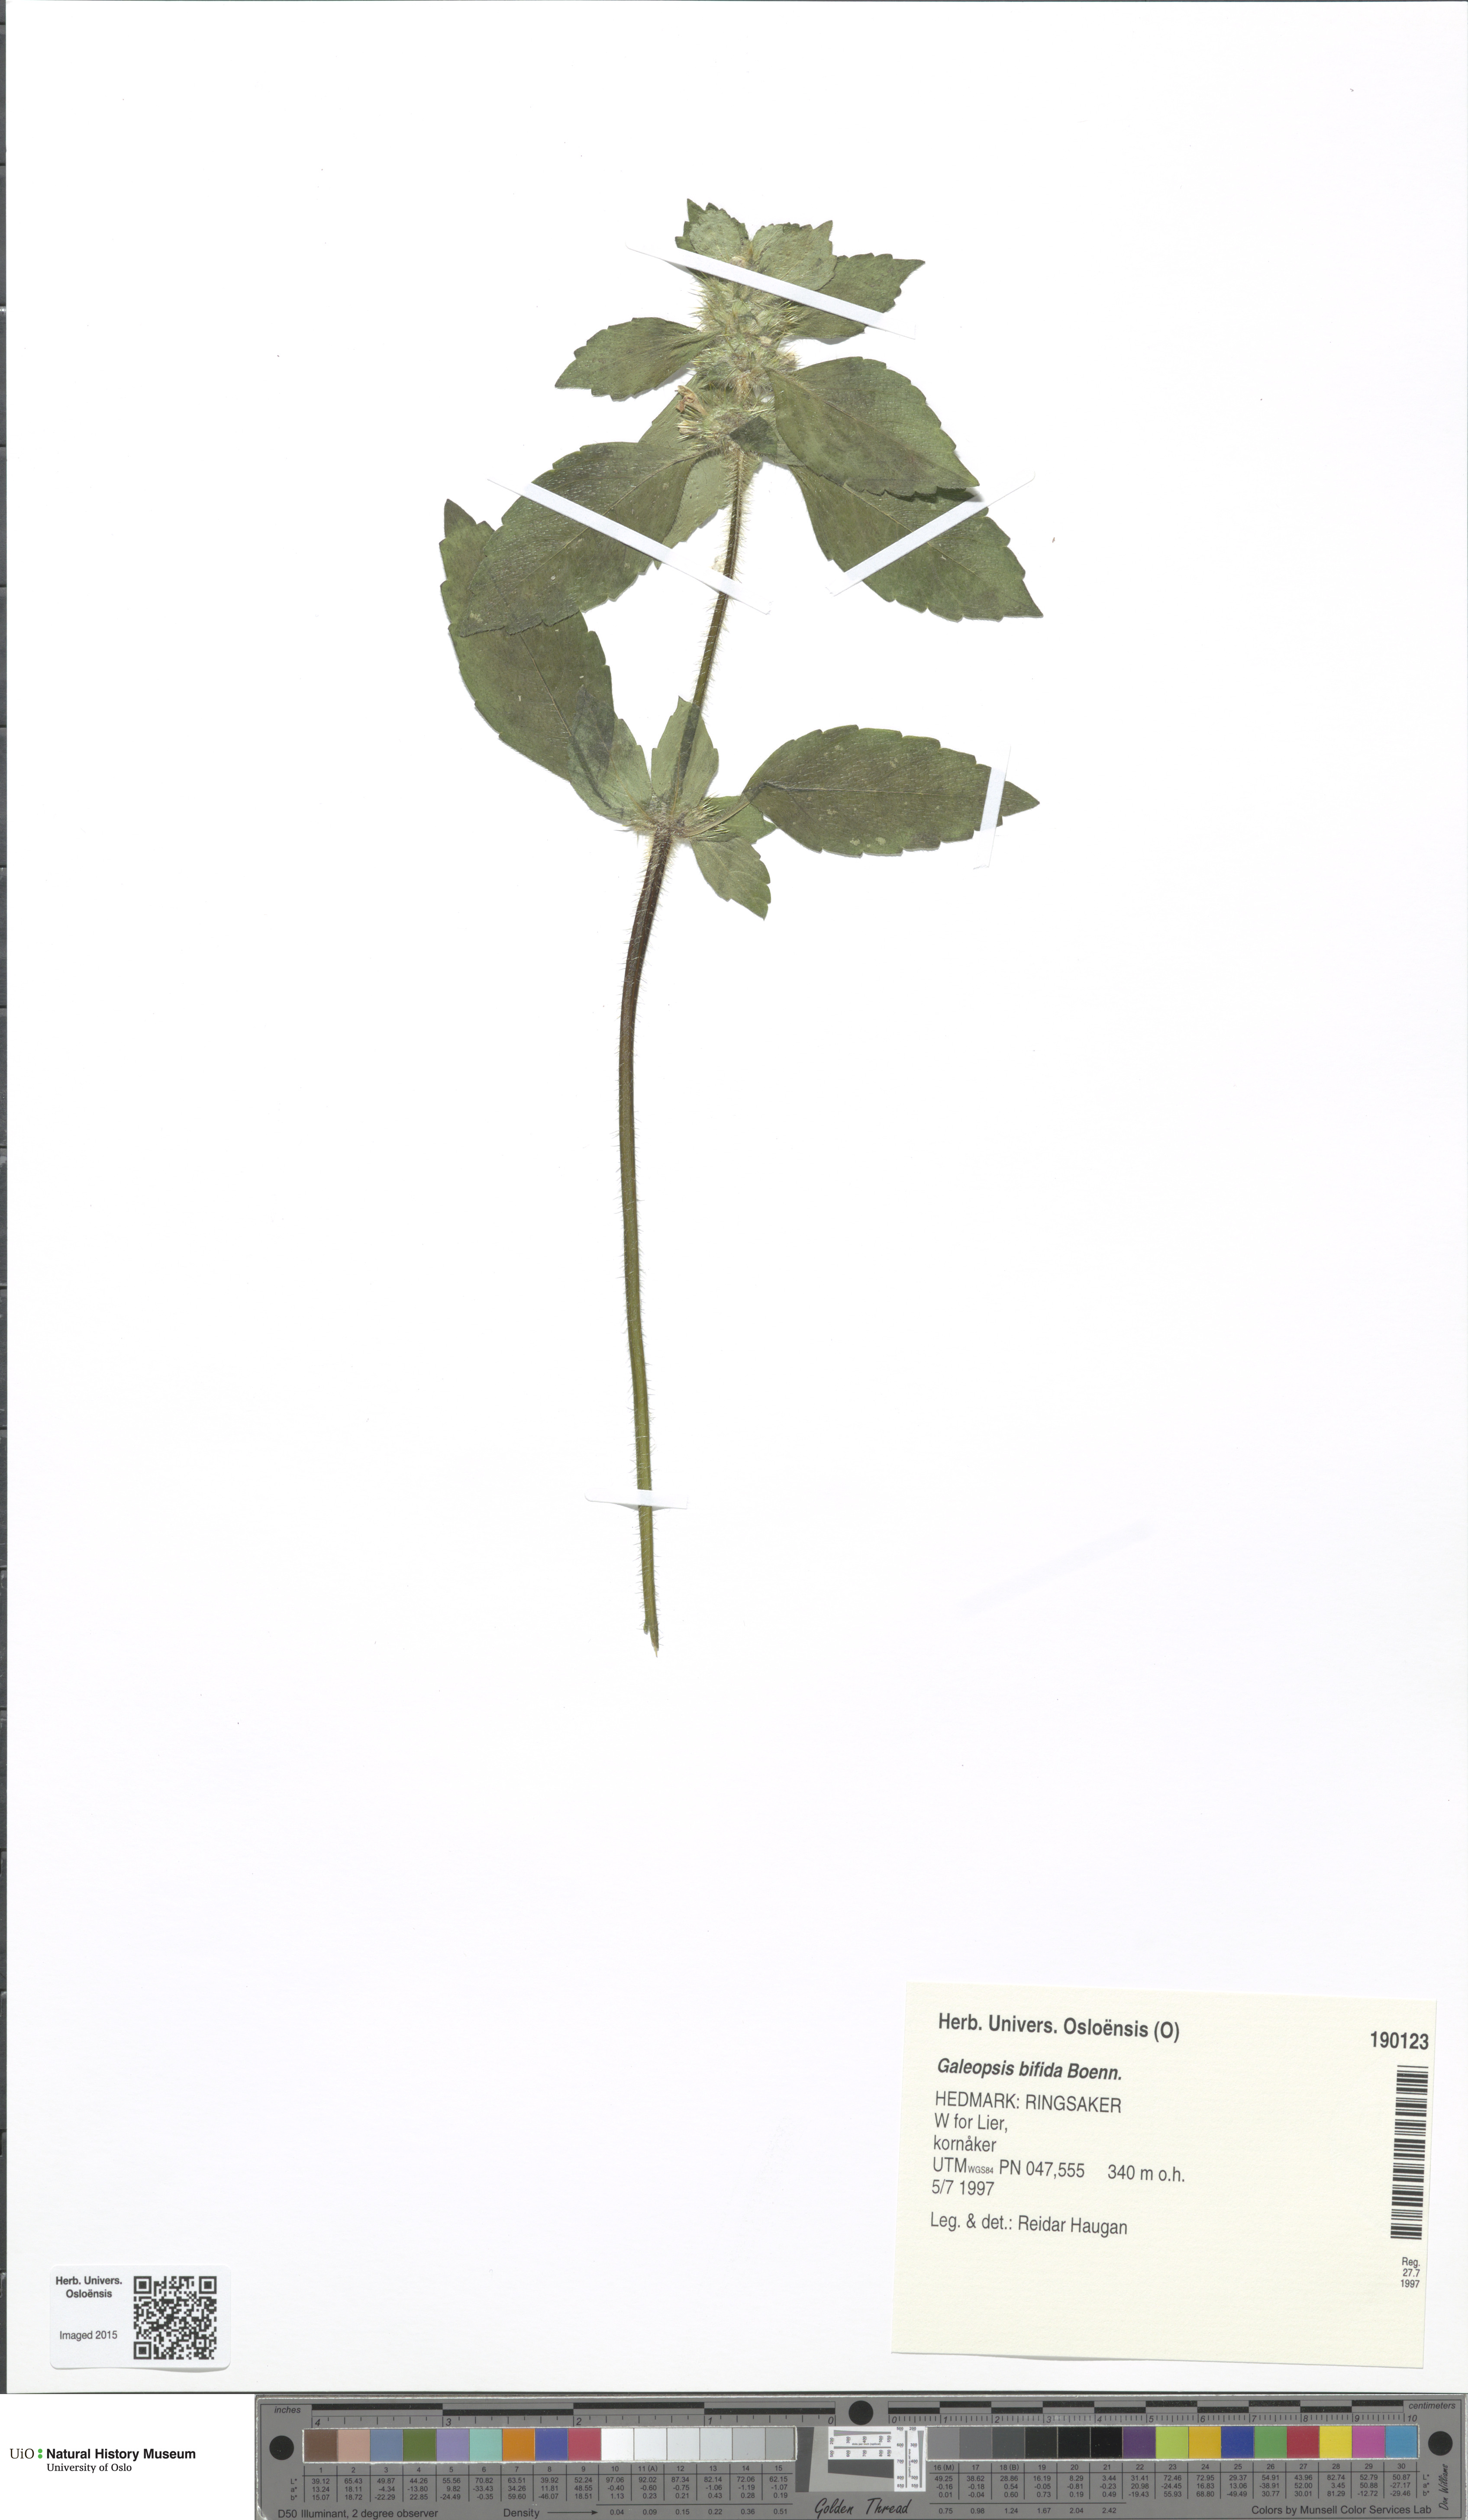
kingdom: Plantae
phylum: Tracheophyta
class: Magnoliopsida
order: Lamiales
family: Lamiaceae
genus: Galeopsis
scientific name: Galeopsis bifida
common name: Bifid hemp-nettle
